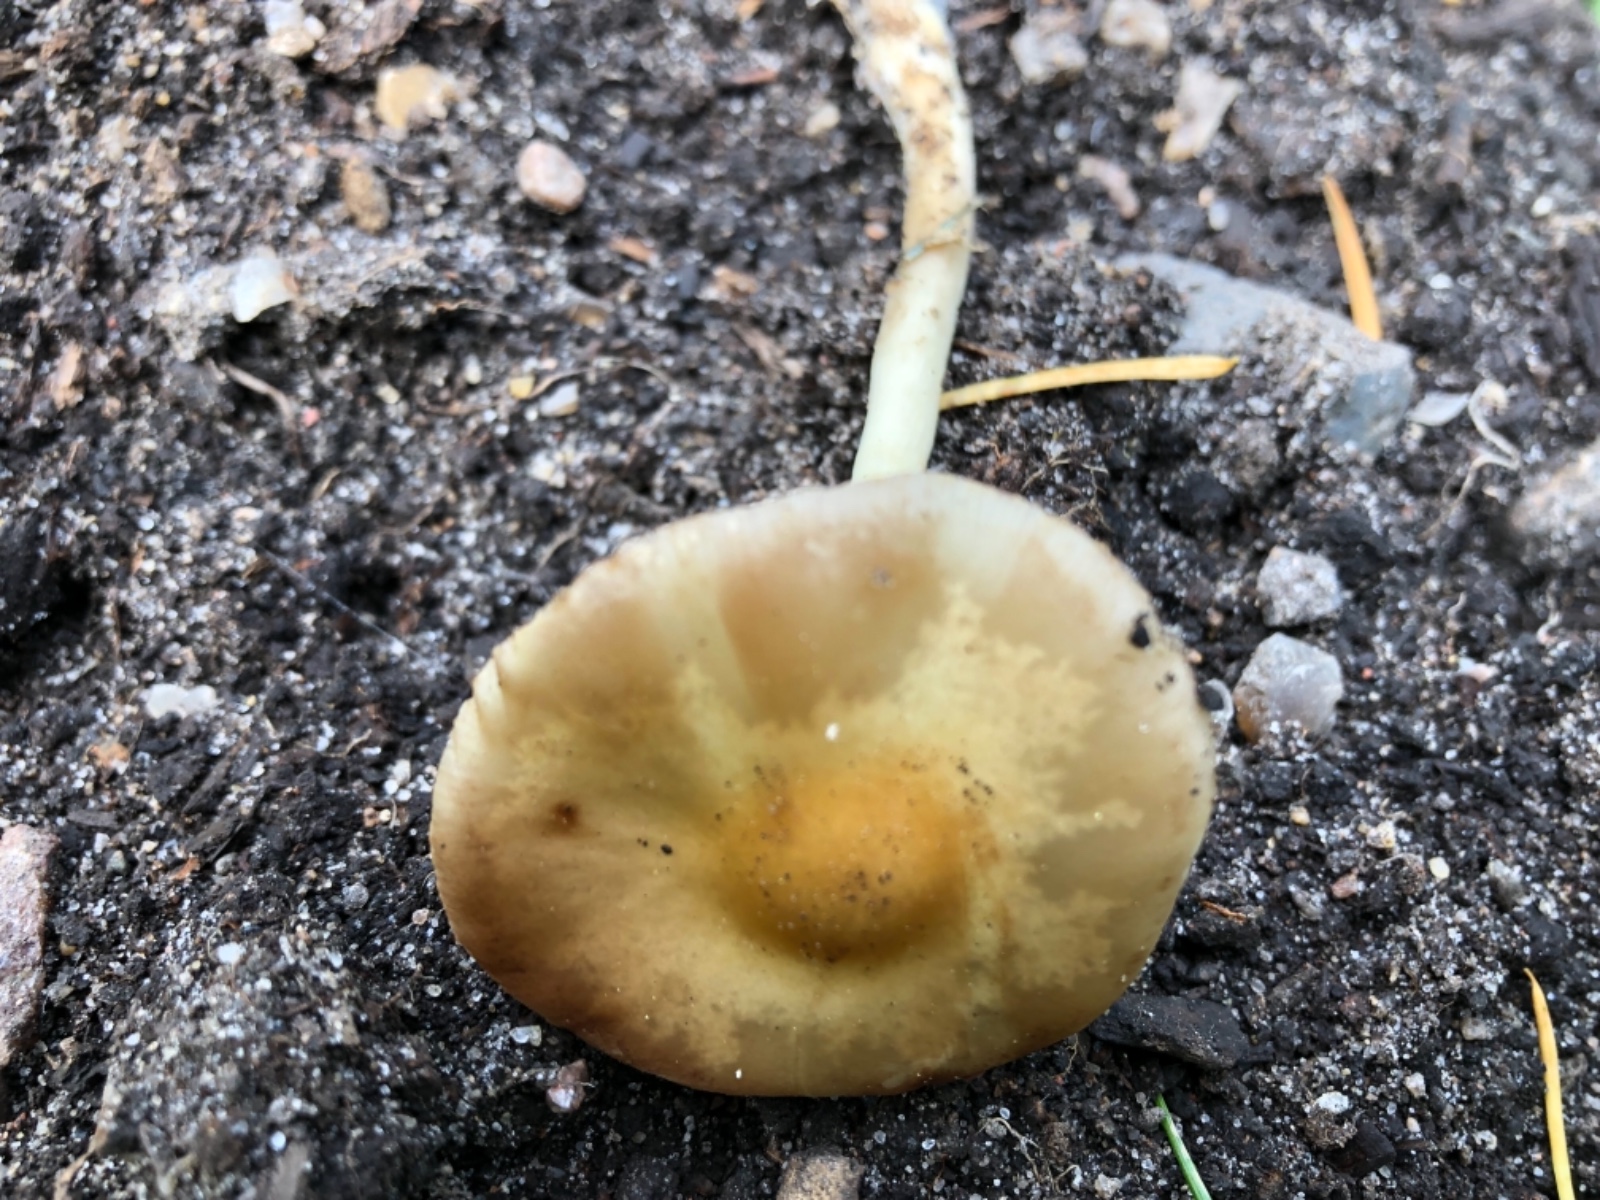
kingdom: Fungi
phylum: Basidiomycota
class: Agaricomycetes
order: Agaricales
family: Strophariaceae
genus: Agrocybe
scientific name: Agrocybe praecox
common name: tidlig agerhat
